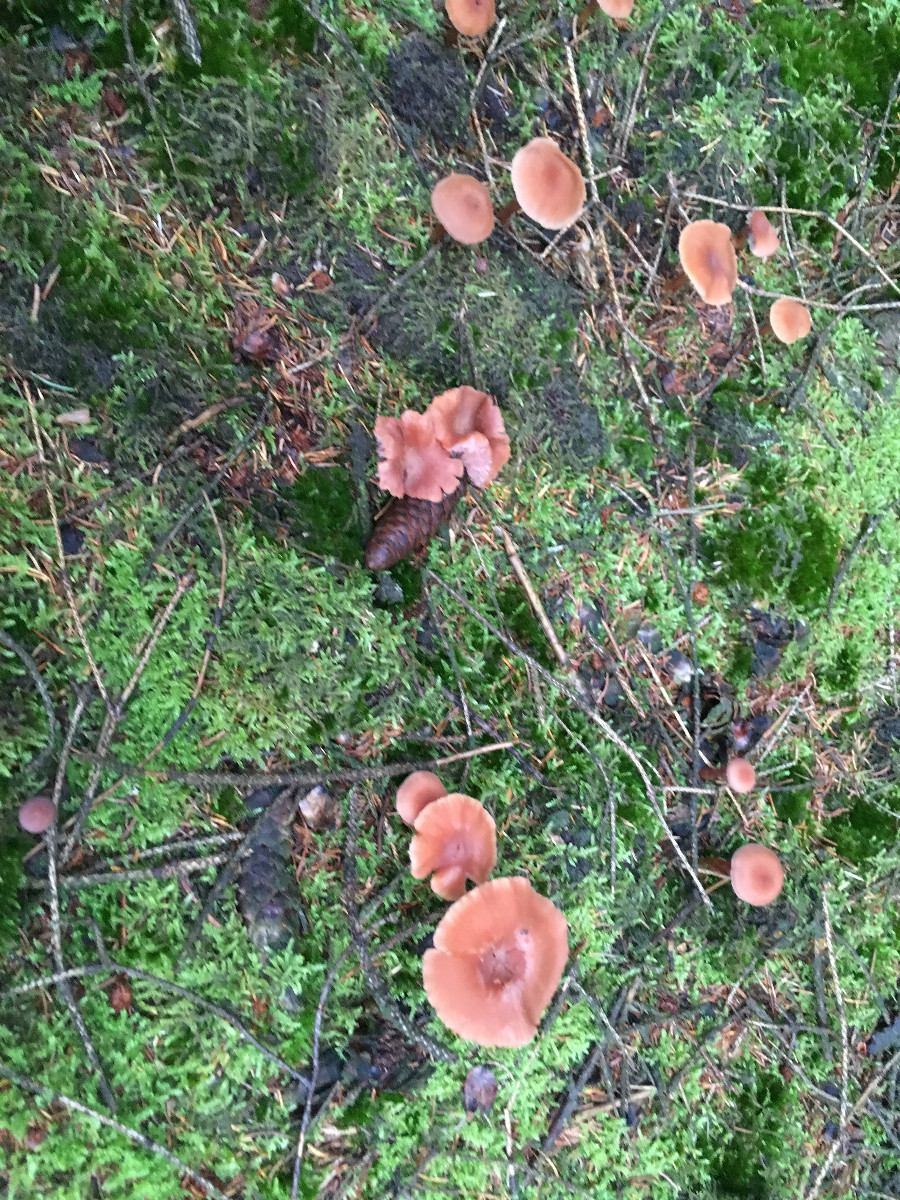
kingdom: Fungi
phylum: Basidiomycota
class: Agaricomycetes
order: Agaricales
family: Hydnangiaceae
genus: Laccaria
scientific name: Laccaria laccata
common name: rød ametysthat
